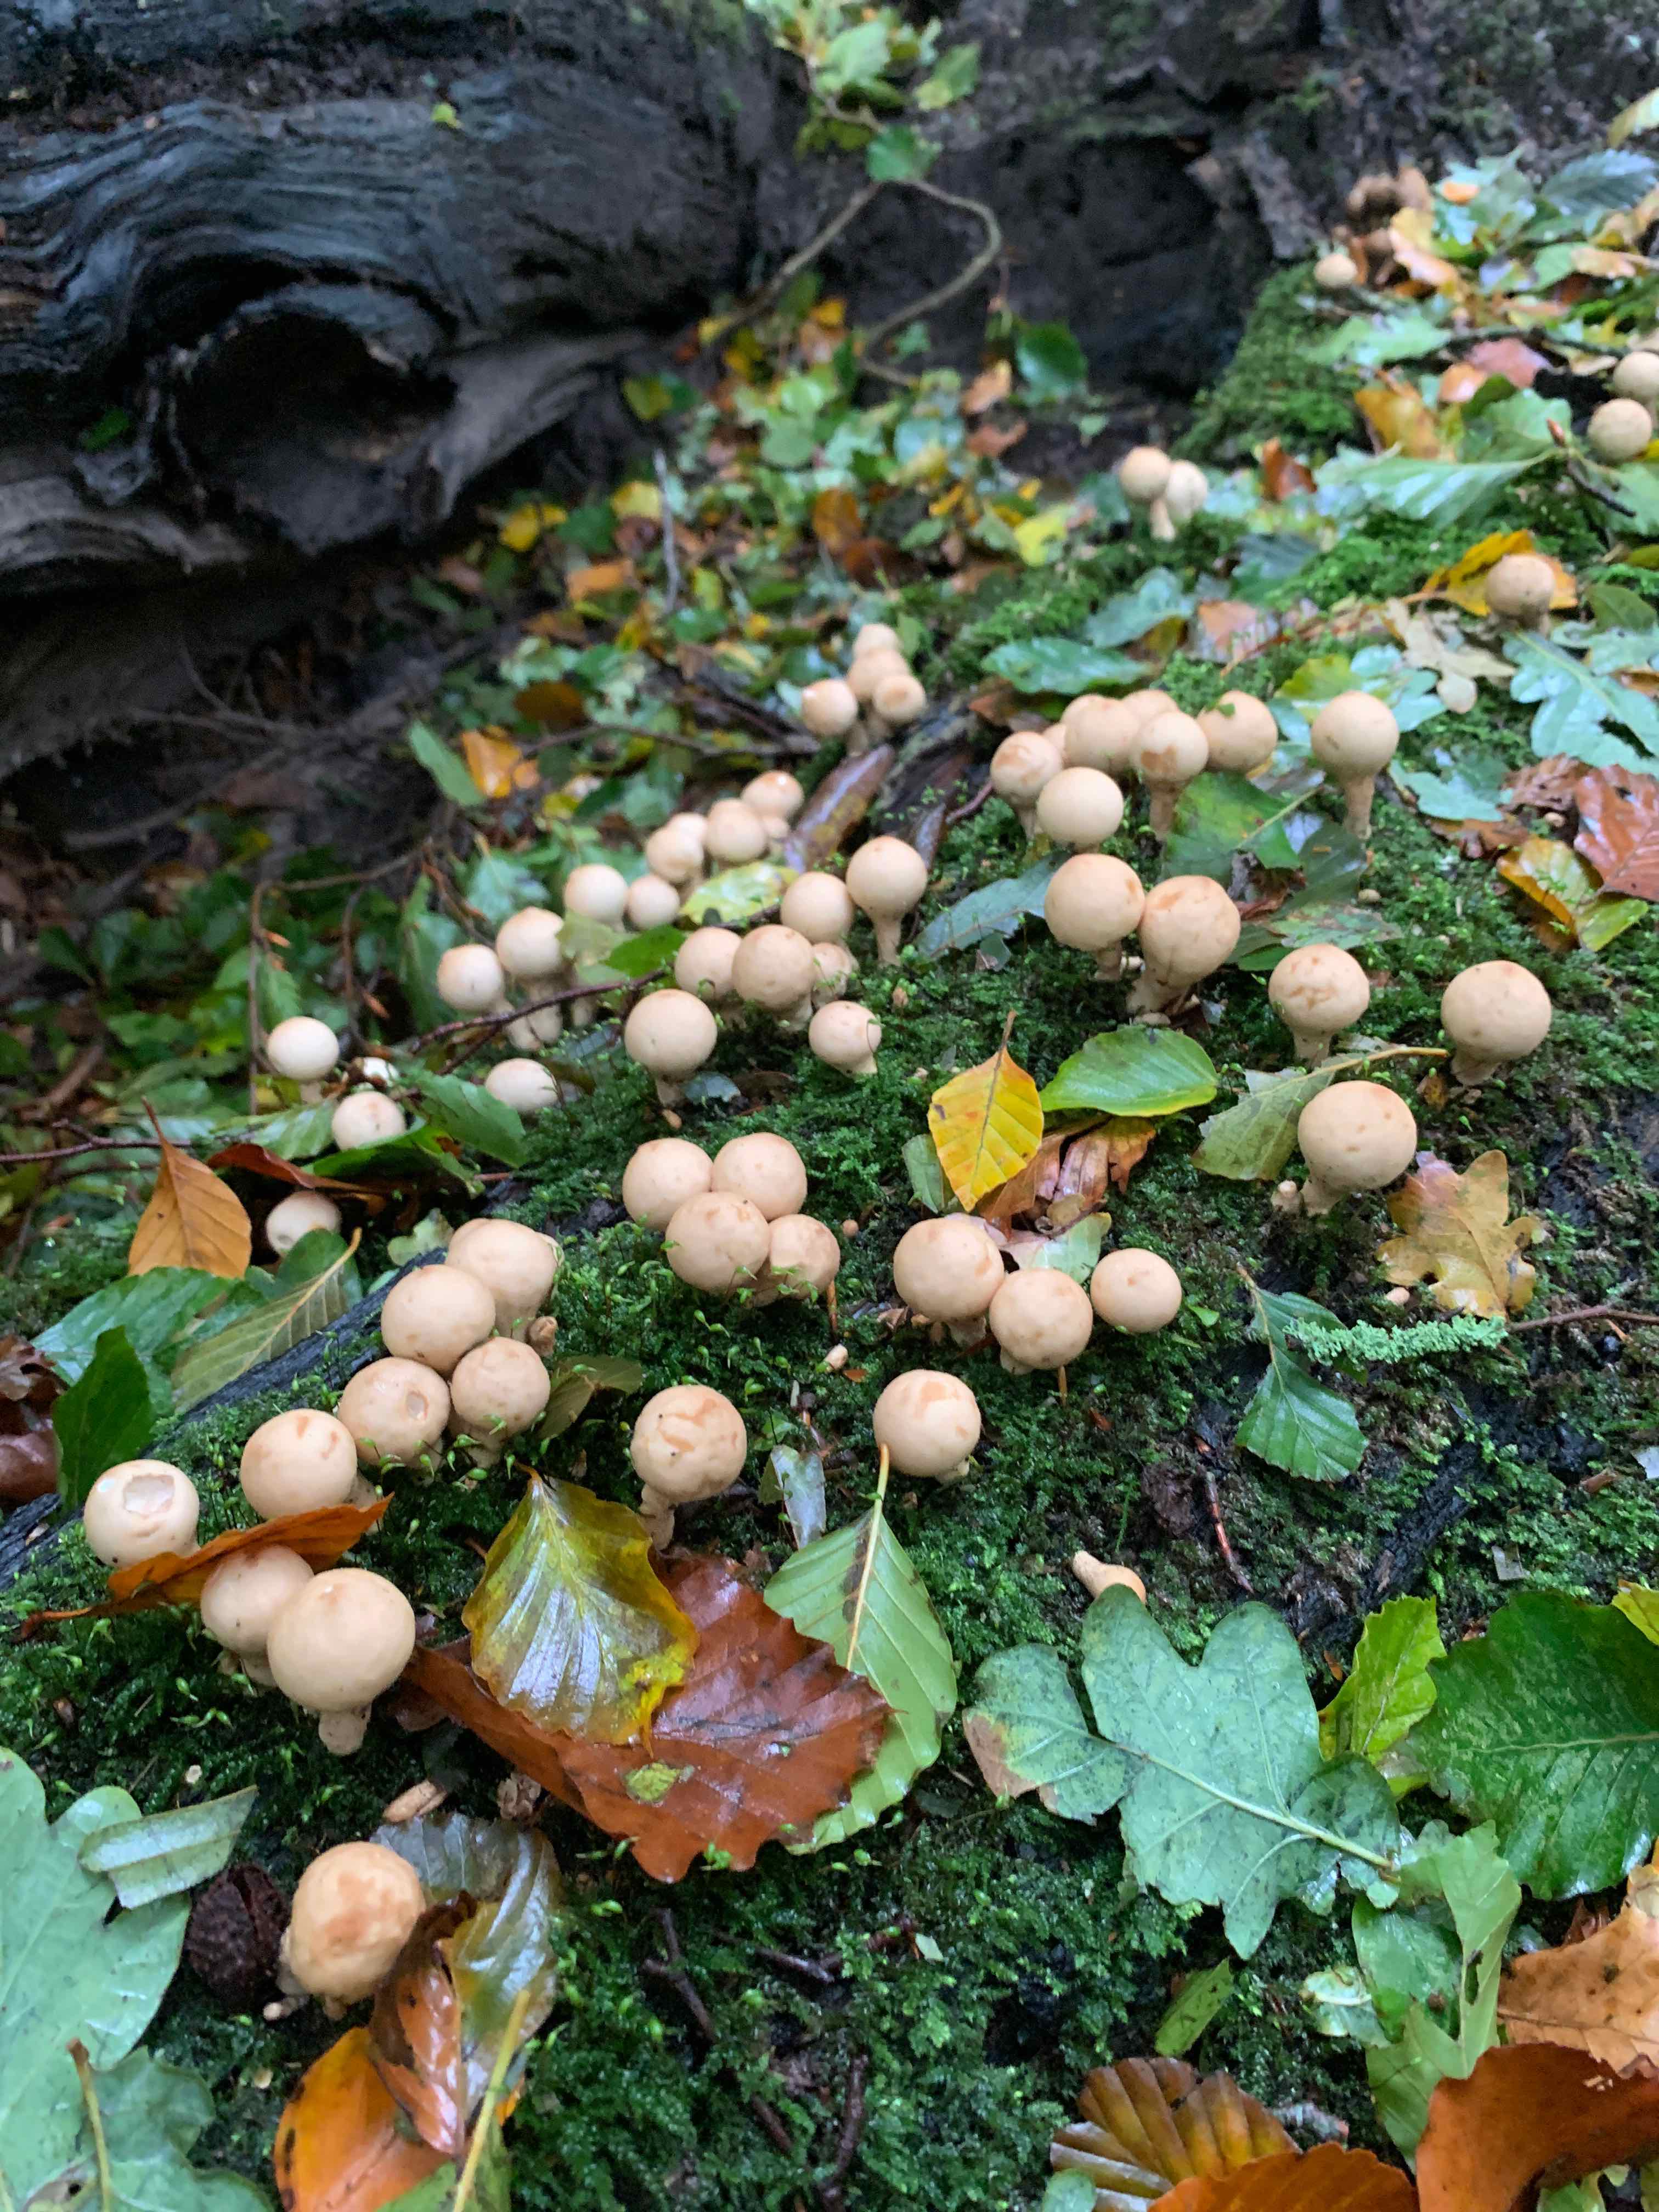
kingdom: Fungi
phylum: Basidiomycota
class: Agaricomycetes
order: Agaricales
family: Lycoperdaceae
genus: Apioperdon
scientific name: Apioperdon pyriforme
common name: pære-støvbold
